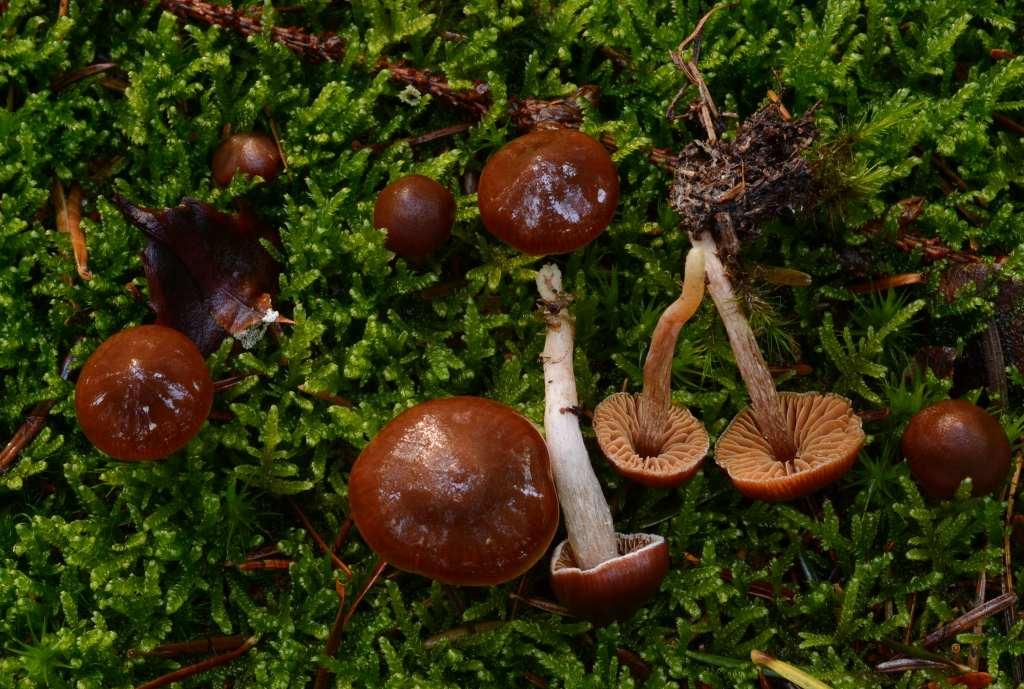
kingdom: Fungi
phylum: Basidiomycota
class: Agaricomycetes
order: Agaricales
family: Cortinariaceae
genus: Cortinarius
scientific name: Cortinarius
